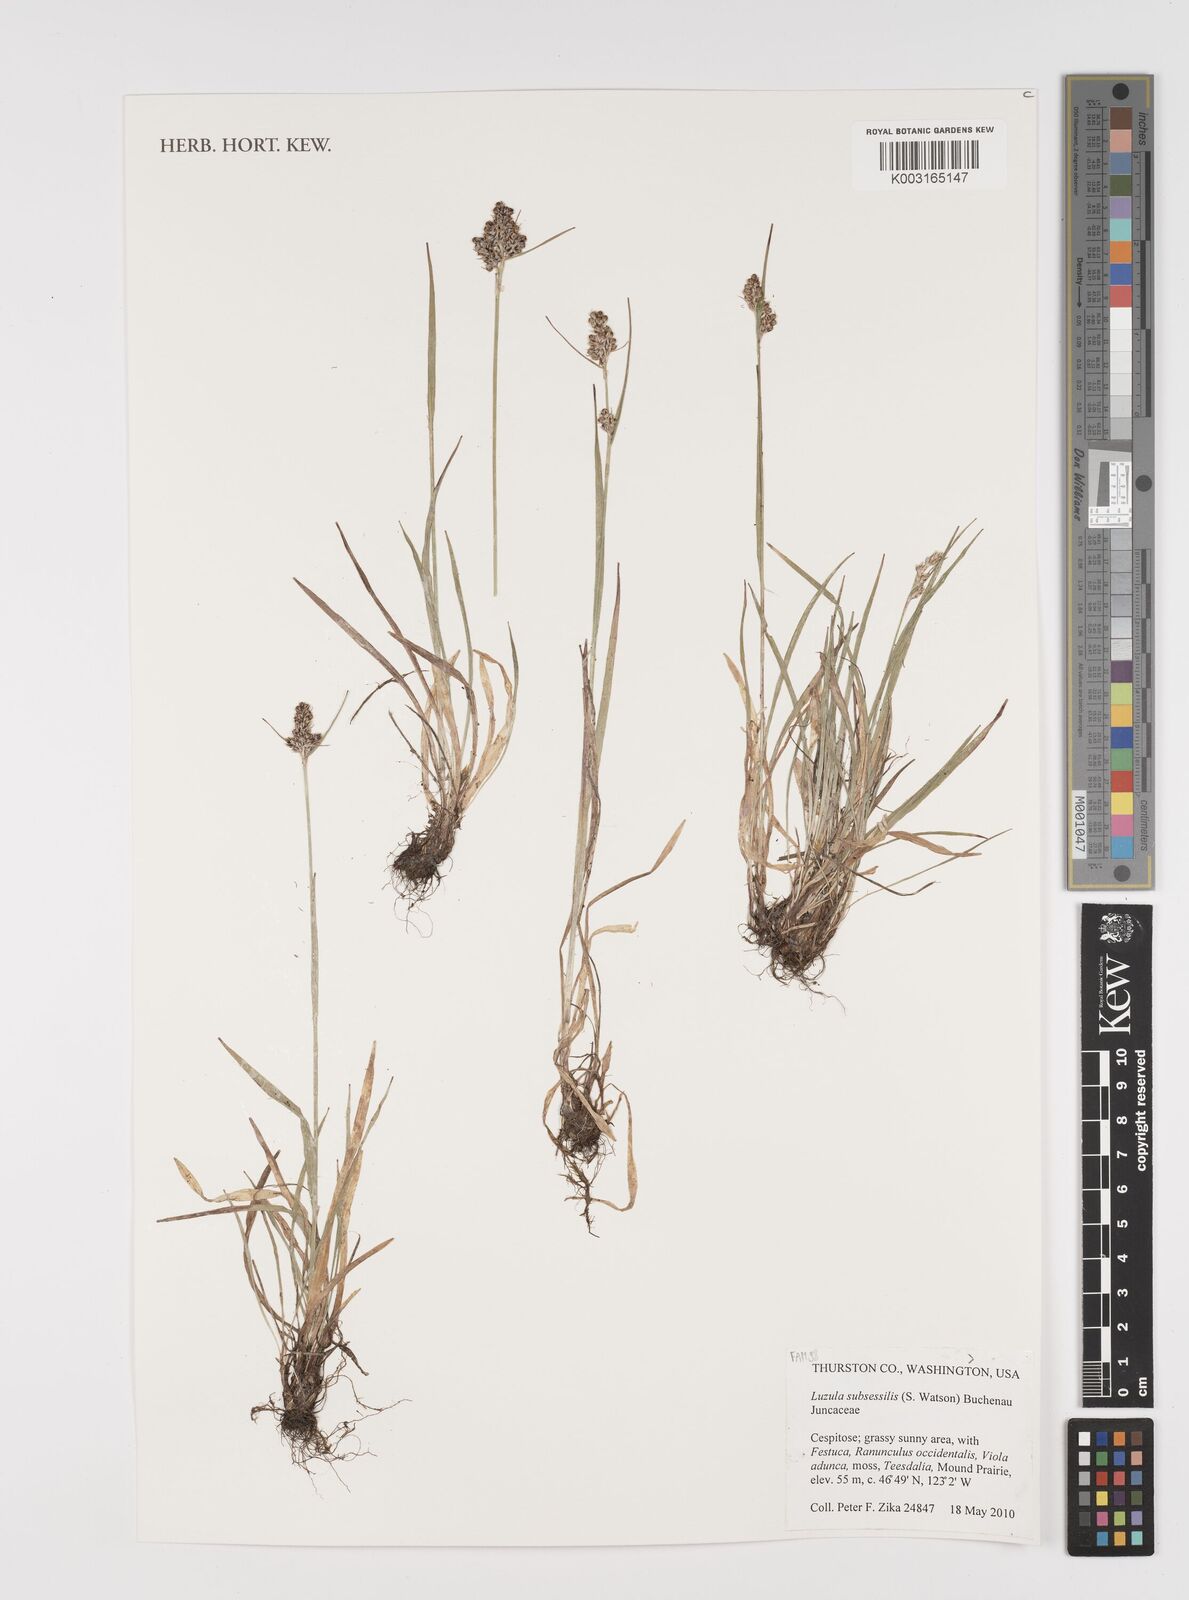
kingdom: Plantae
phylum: Tracheophyta
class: Liliopsida
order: Poales
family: Juncaceae
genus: Luzula
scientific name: Luzula macrantha
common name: Large-anthered woodrush
